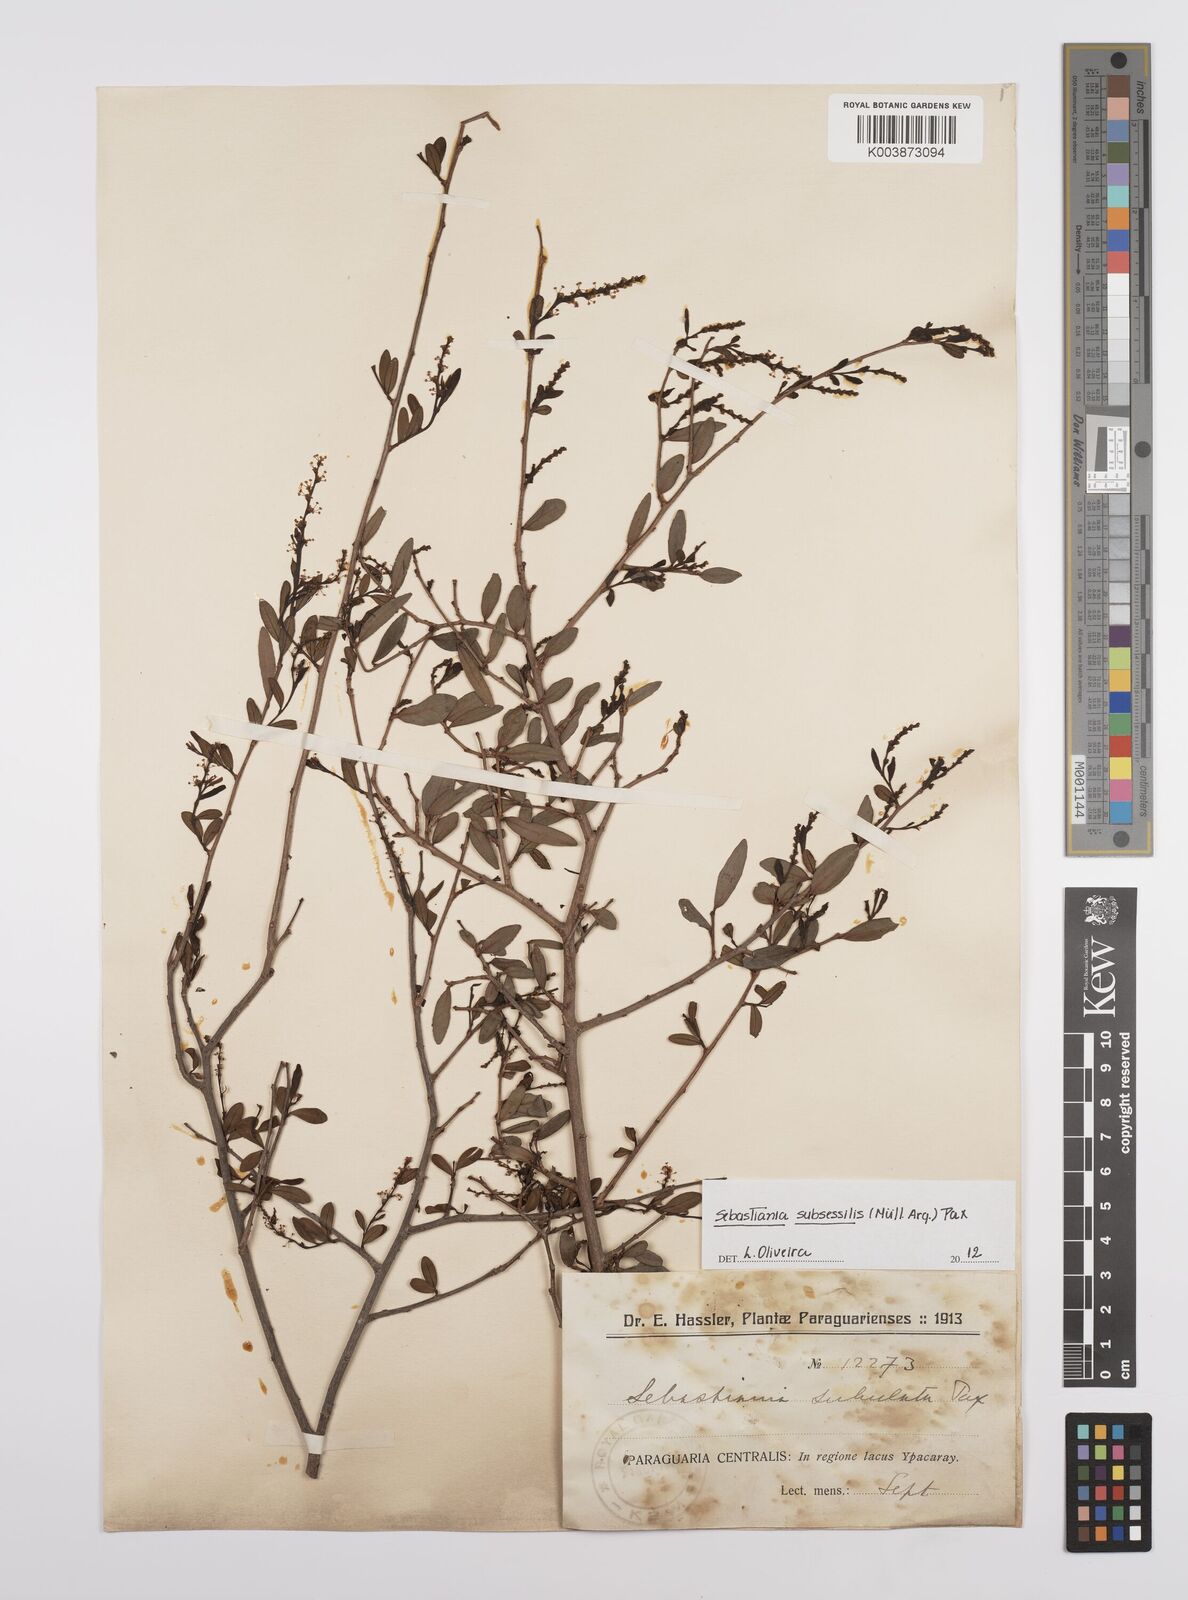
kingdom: Plantae
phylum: Tracheophyta
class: Magnoliopsida
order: Malpighiales
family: Euphorbiaceae
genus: Sebastiania
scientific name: Sebastiania subsessilis
